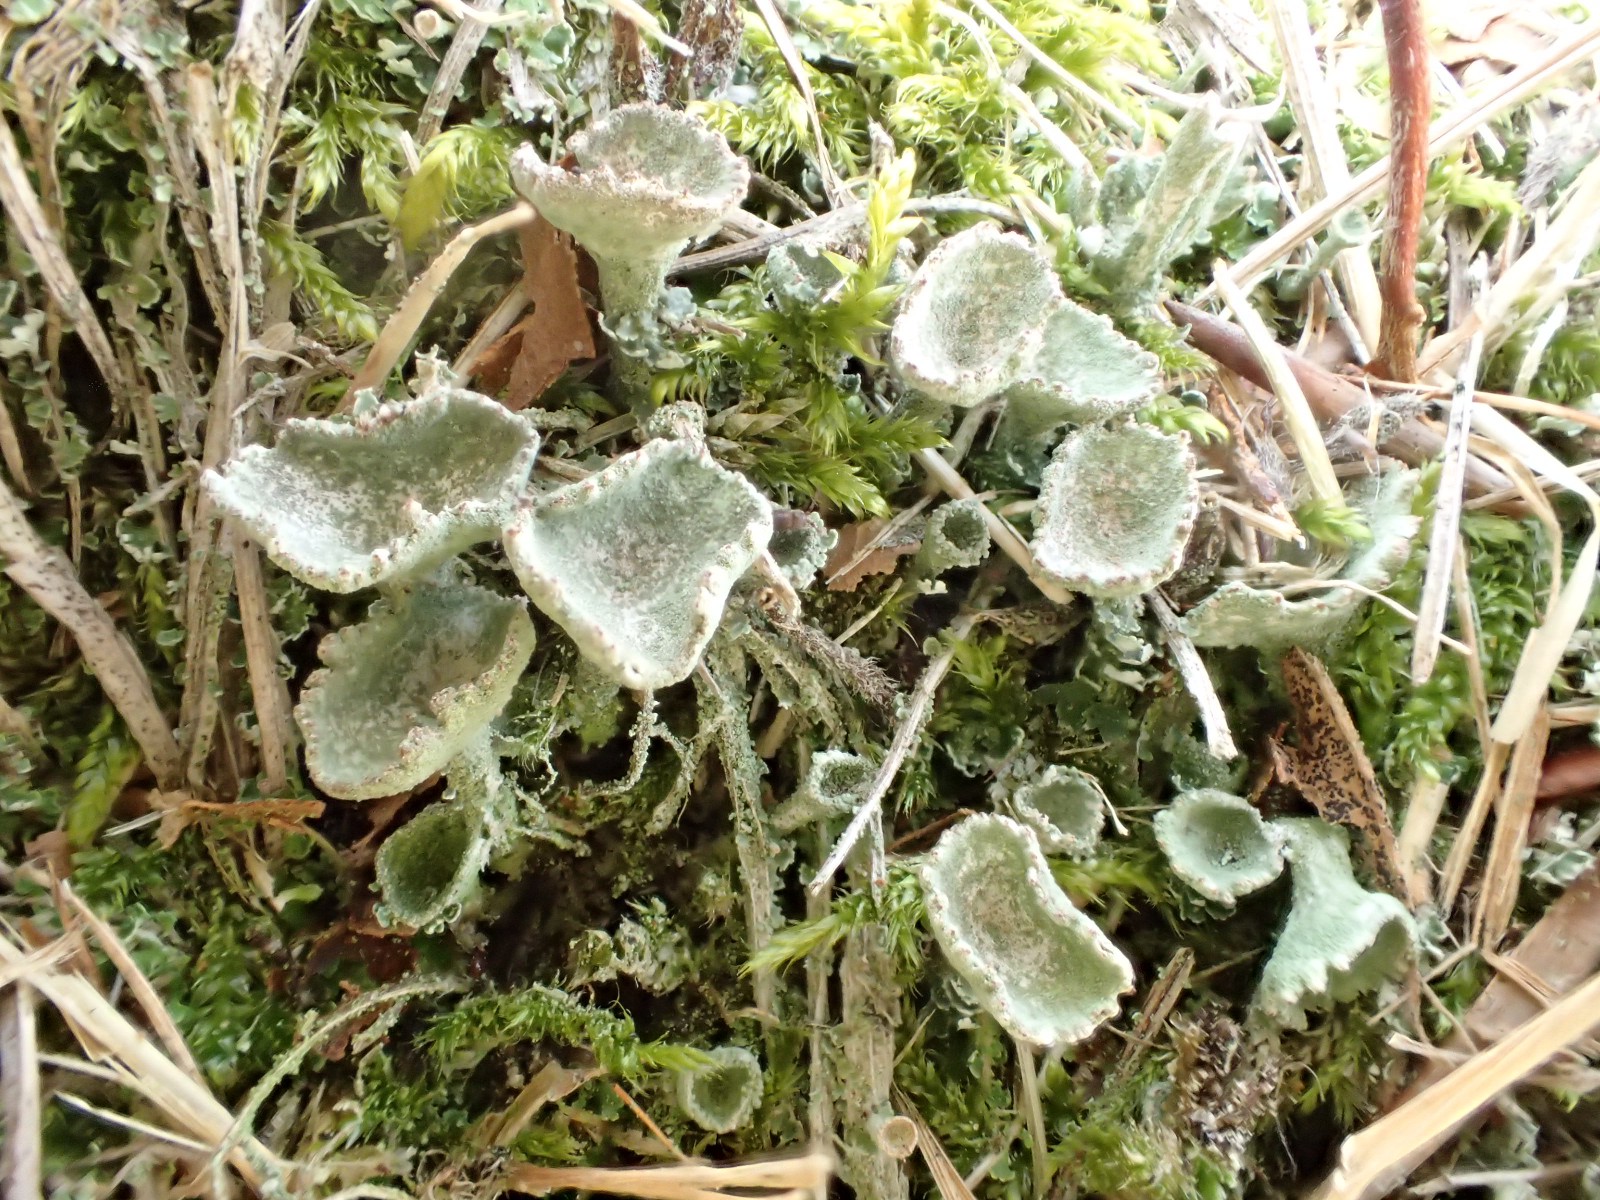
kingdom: Fungi
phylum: Ascomycota
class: Lecanoromycetes
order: Lecanorales
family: Cladoniaceae
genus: Cladonia
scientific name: Cladonia
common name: brungrøn bægerlav
